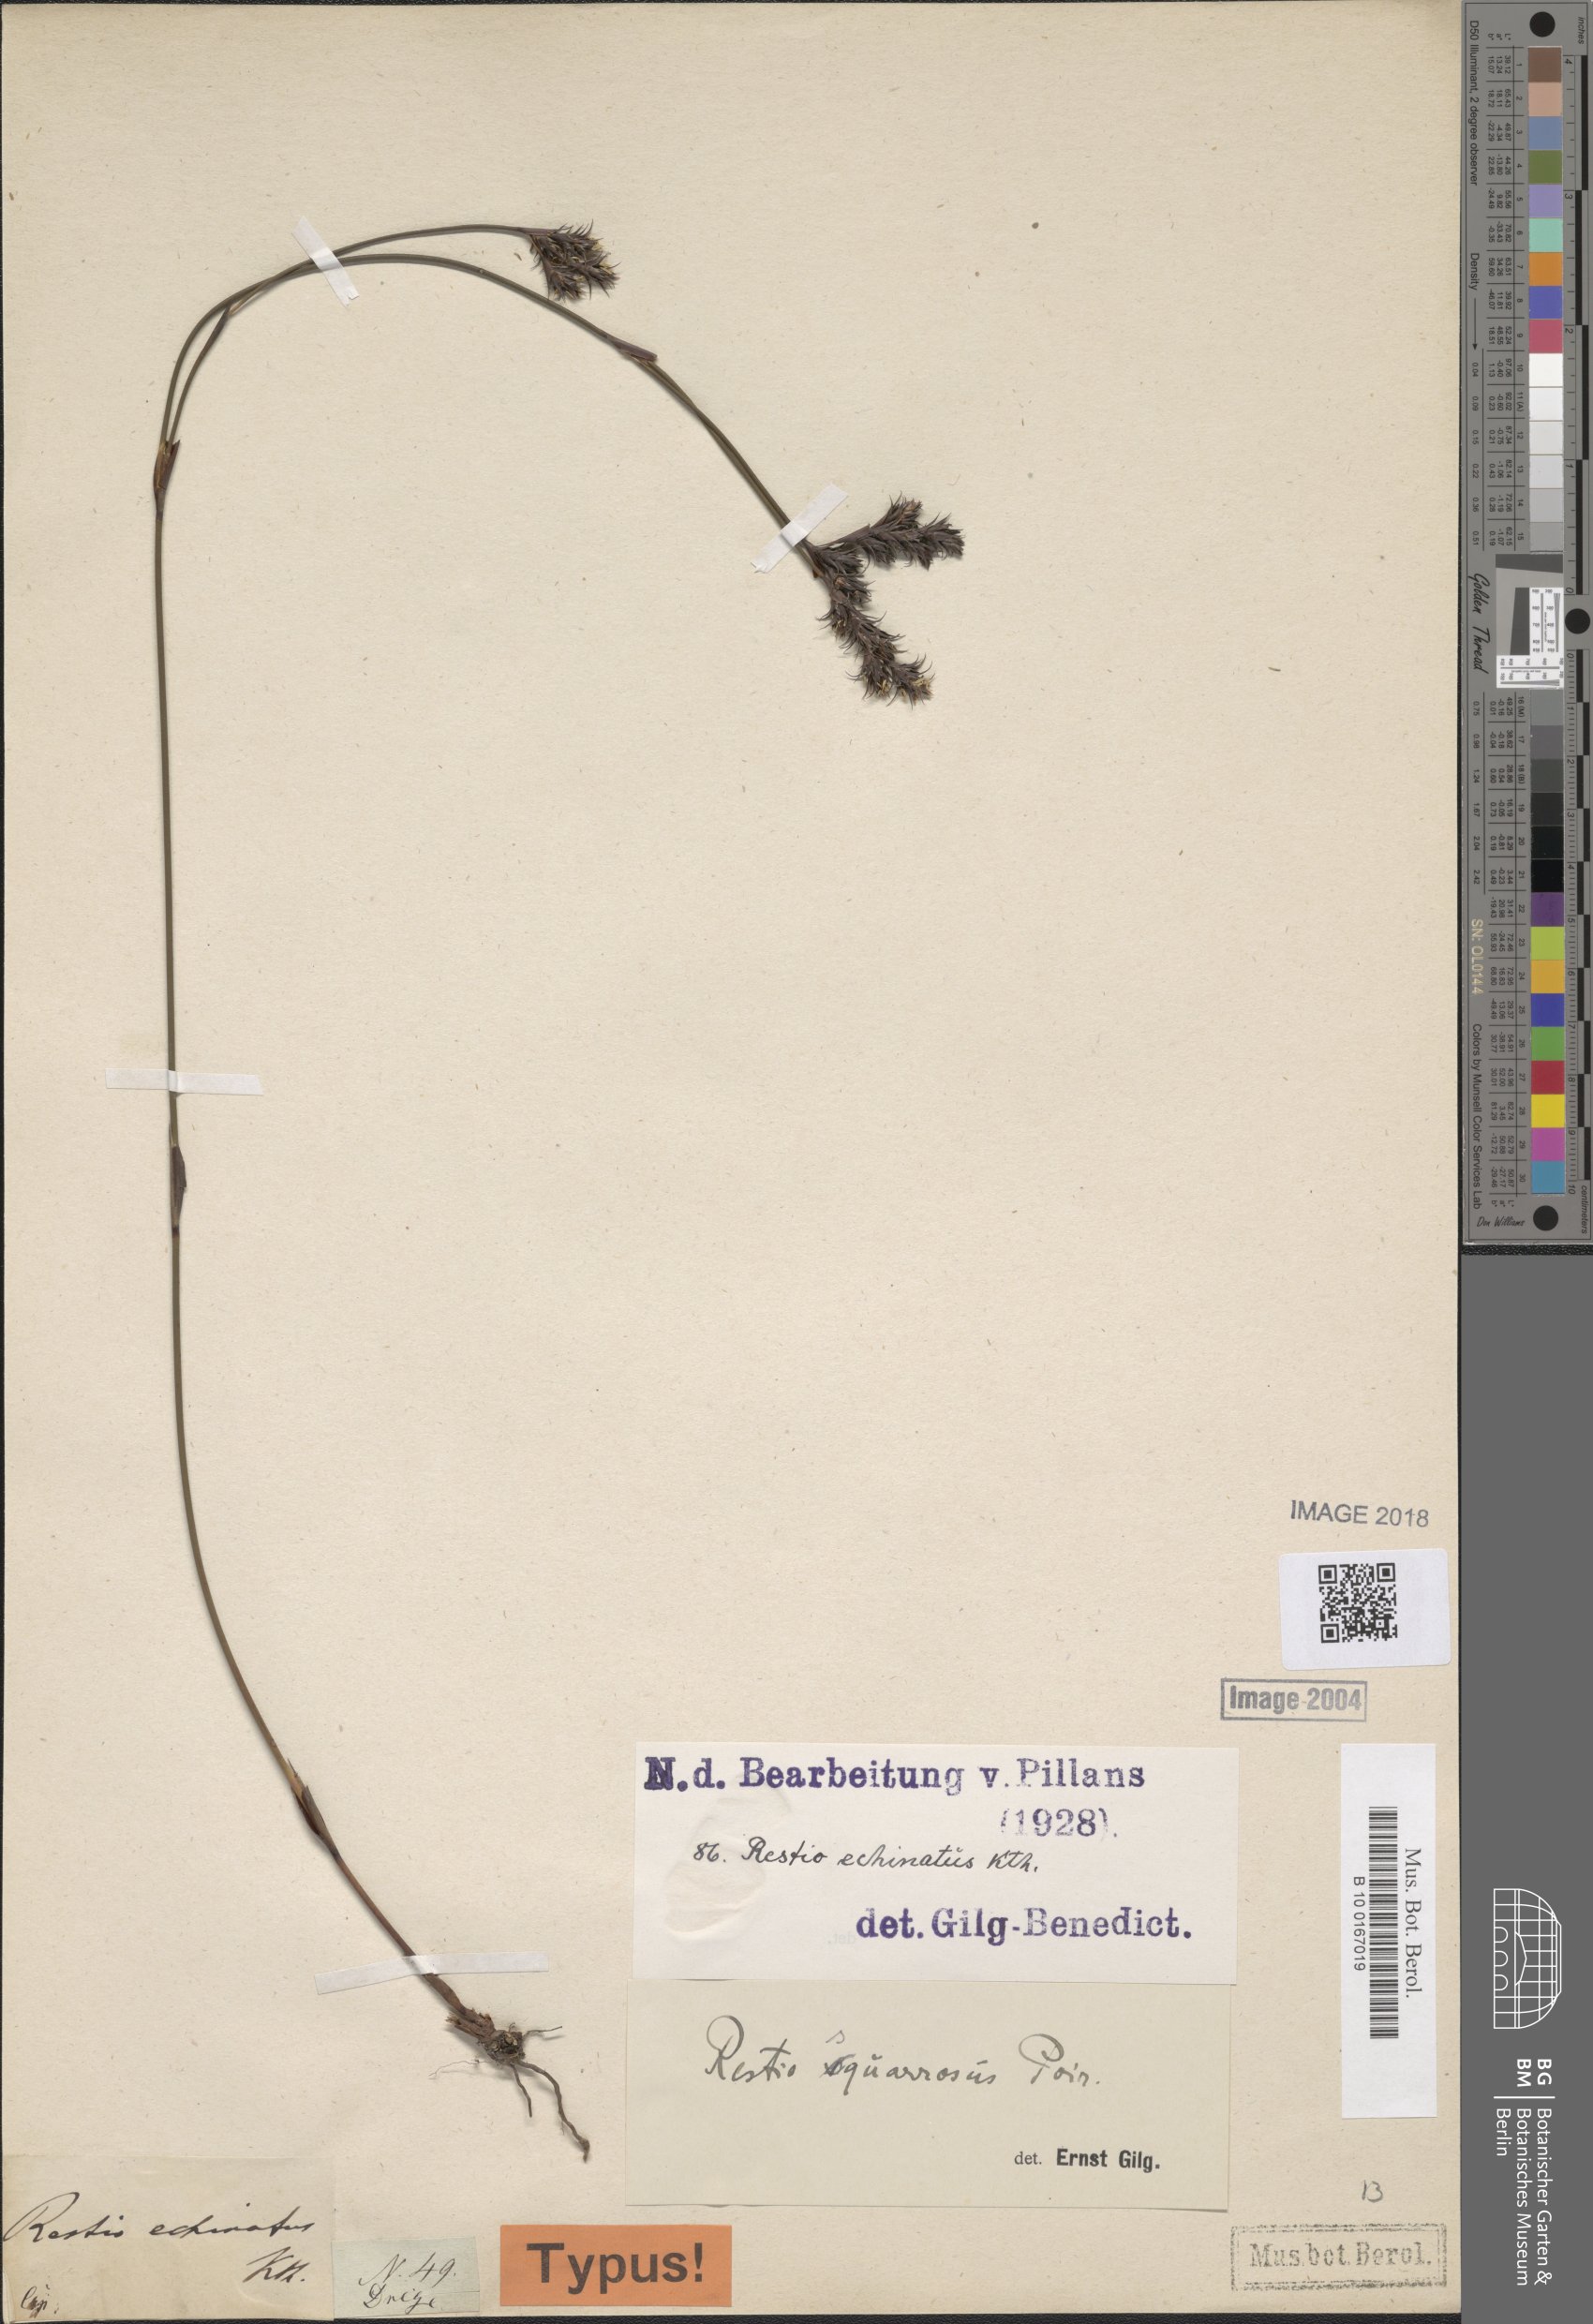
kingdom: Plantae
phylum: Tracheophyta
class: Liliopsida
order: Poales
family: Restionaceae
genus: Restio
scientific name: Restio capensis
